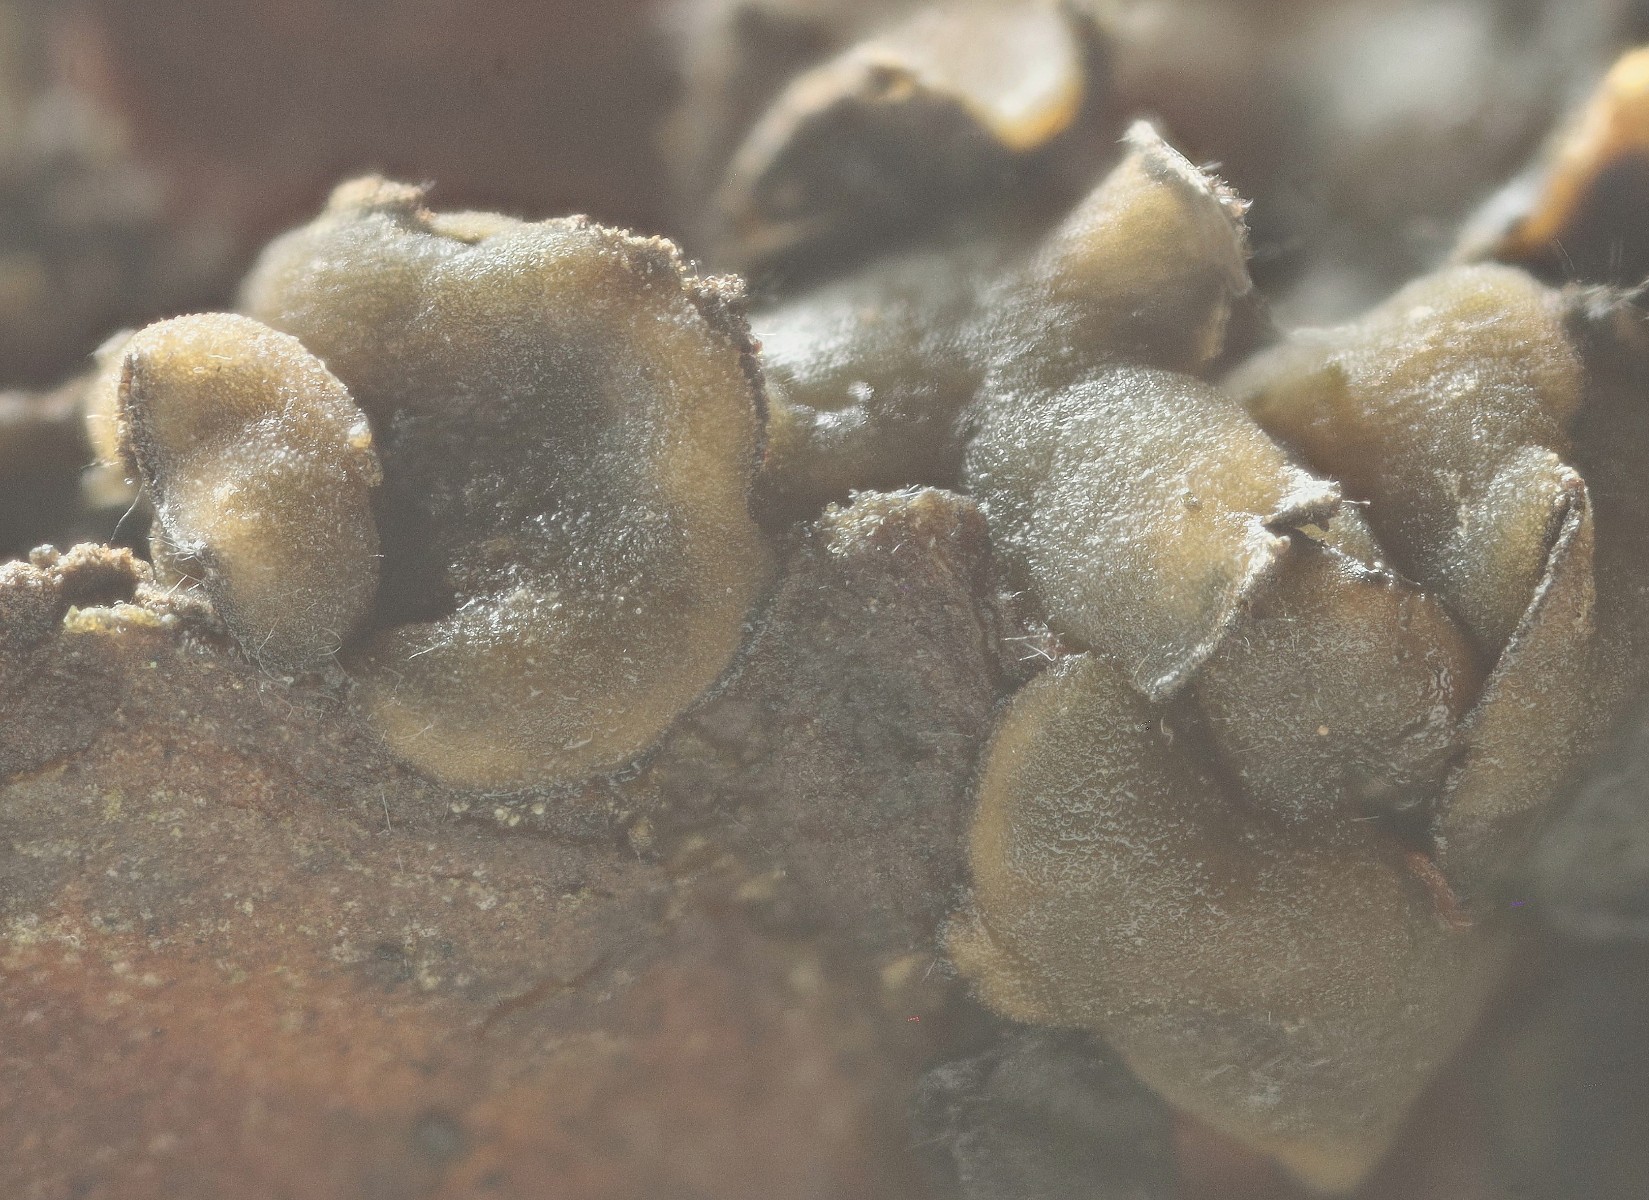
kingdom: Fungi
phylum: Ascomycota
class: Leotiomycetes
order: Helotiales
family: Cenangiaceae
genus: Cenangium
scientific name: Cenangium ferruginosum
